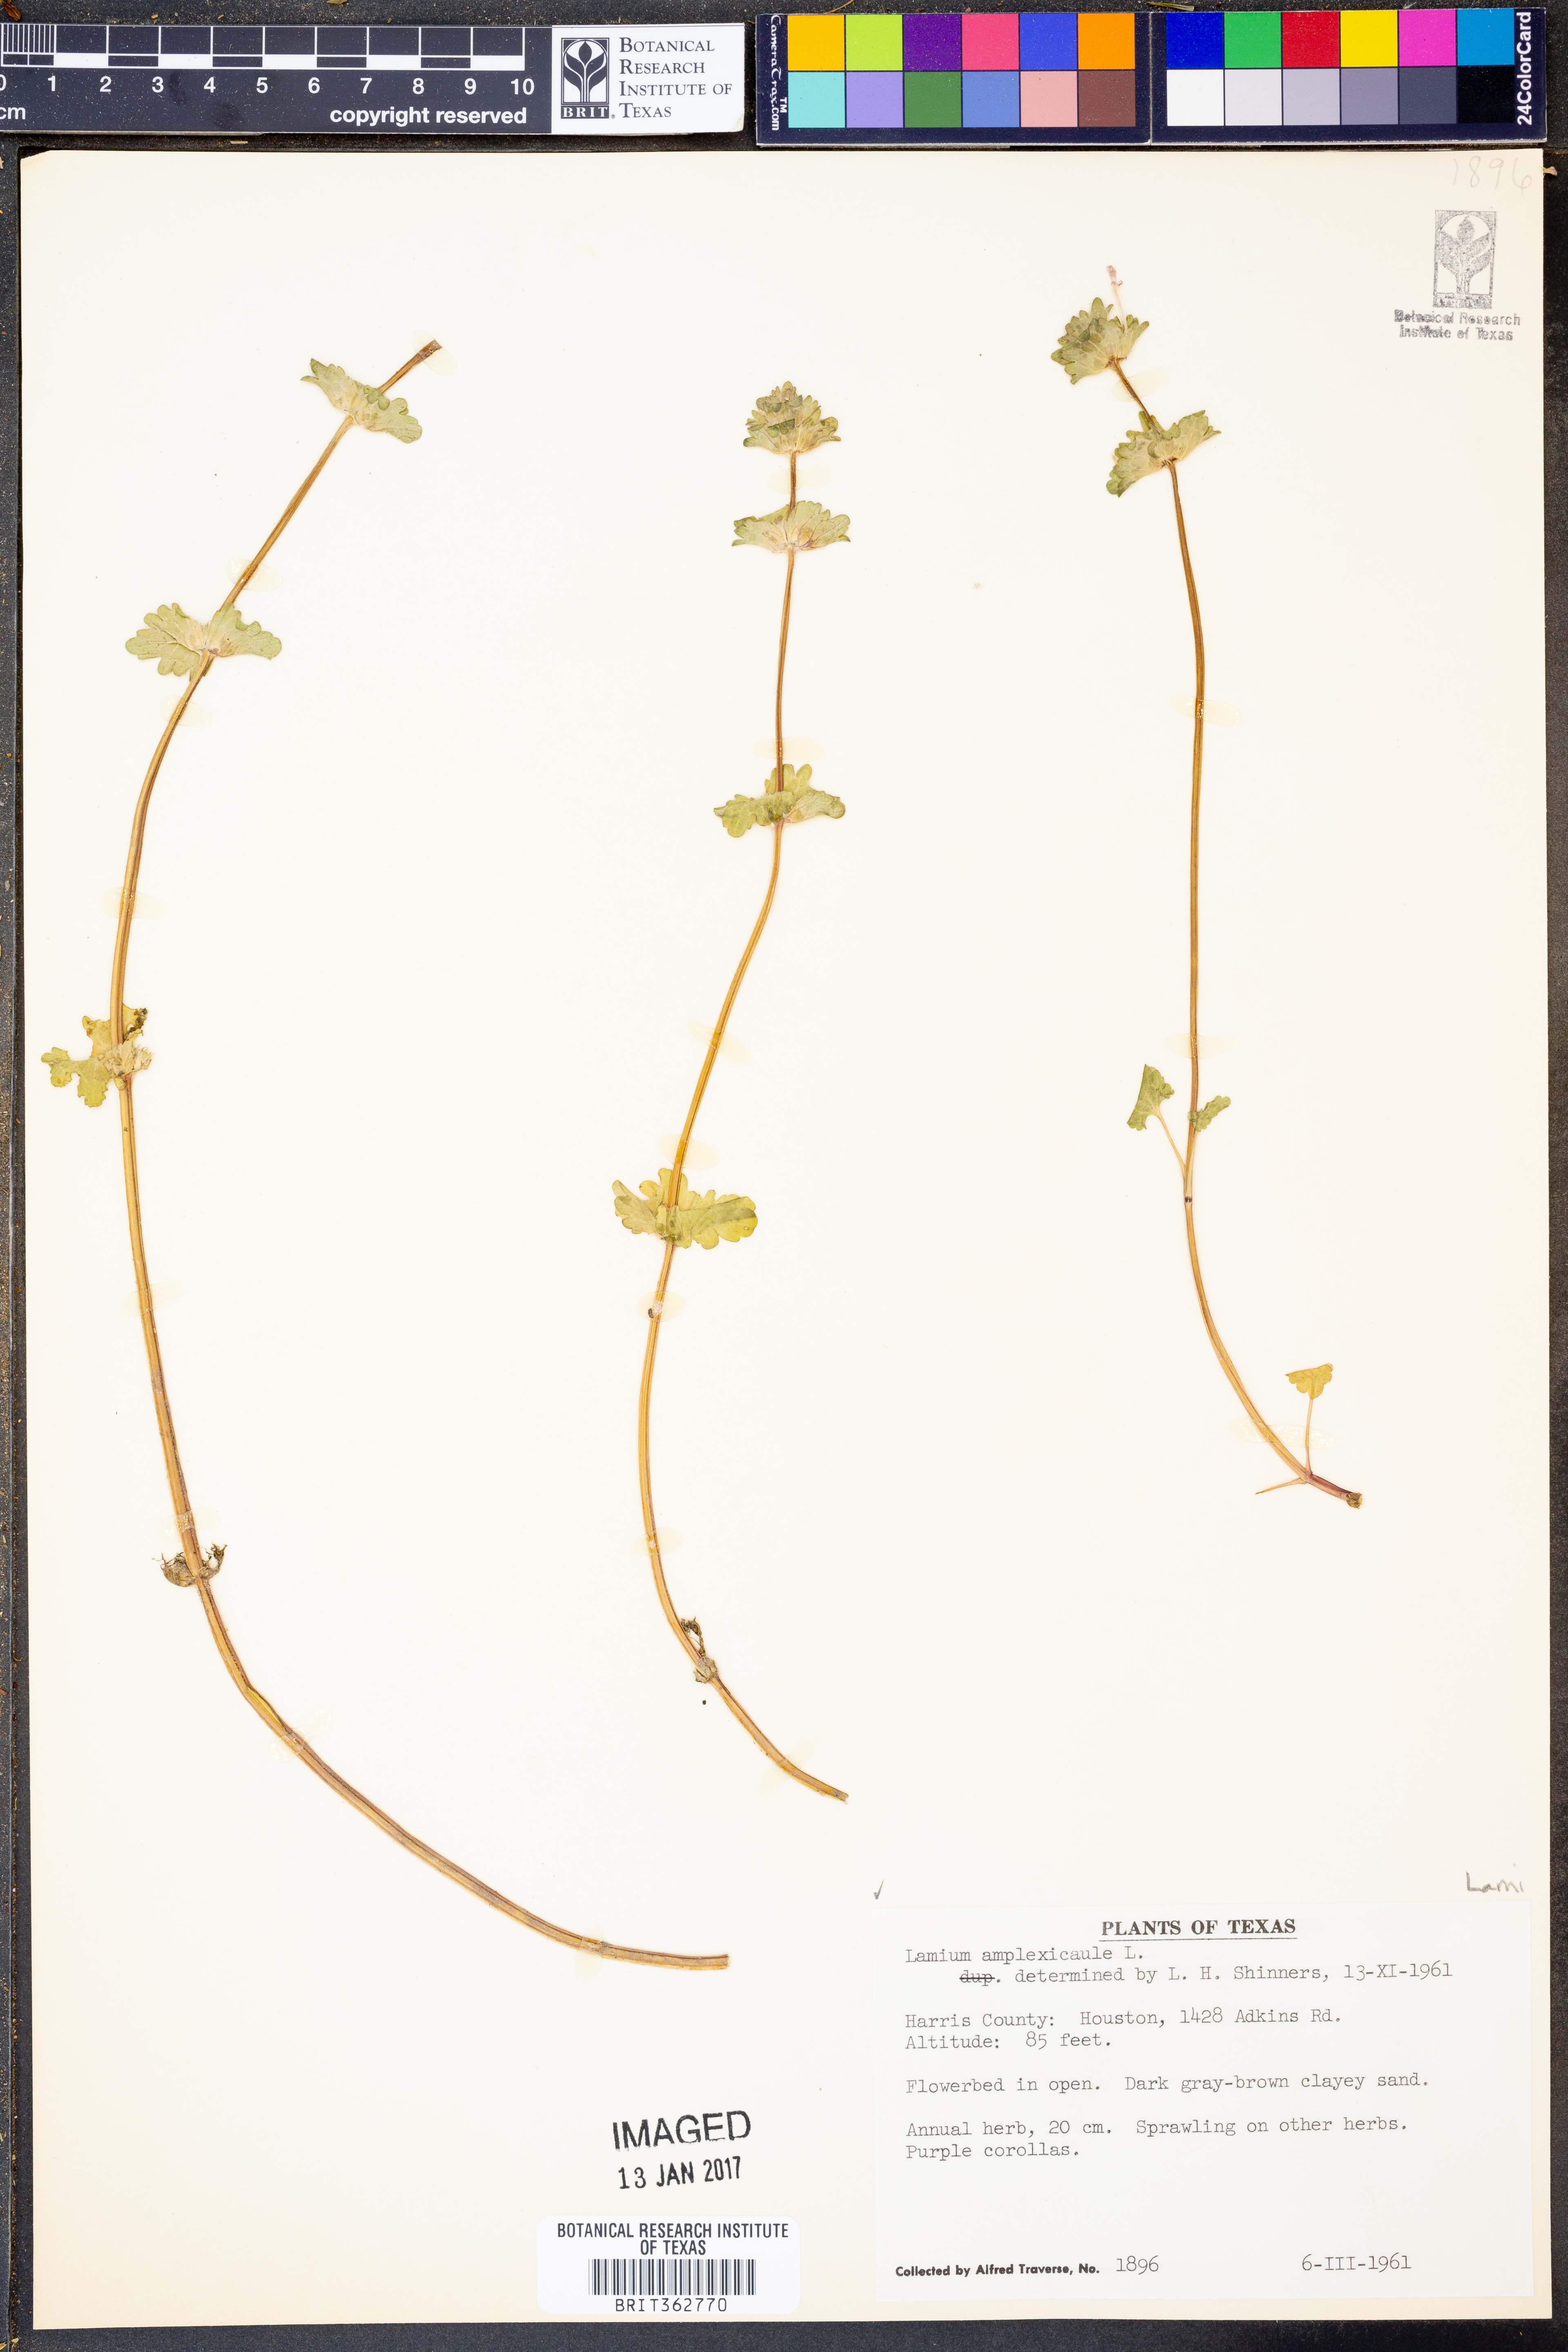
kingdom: Plantae
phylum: Tracheophyta
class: Magnoliopsida
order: Lamiales
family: Lamiaceae
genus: Lamium
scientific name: Lamium amplexicaule
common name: Henbit dead-nettle
